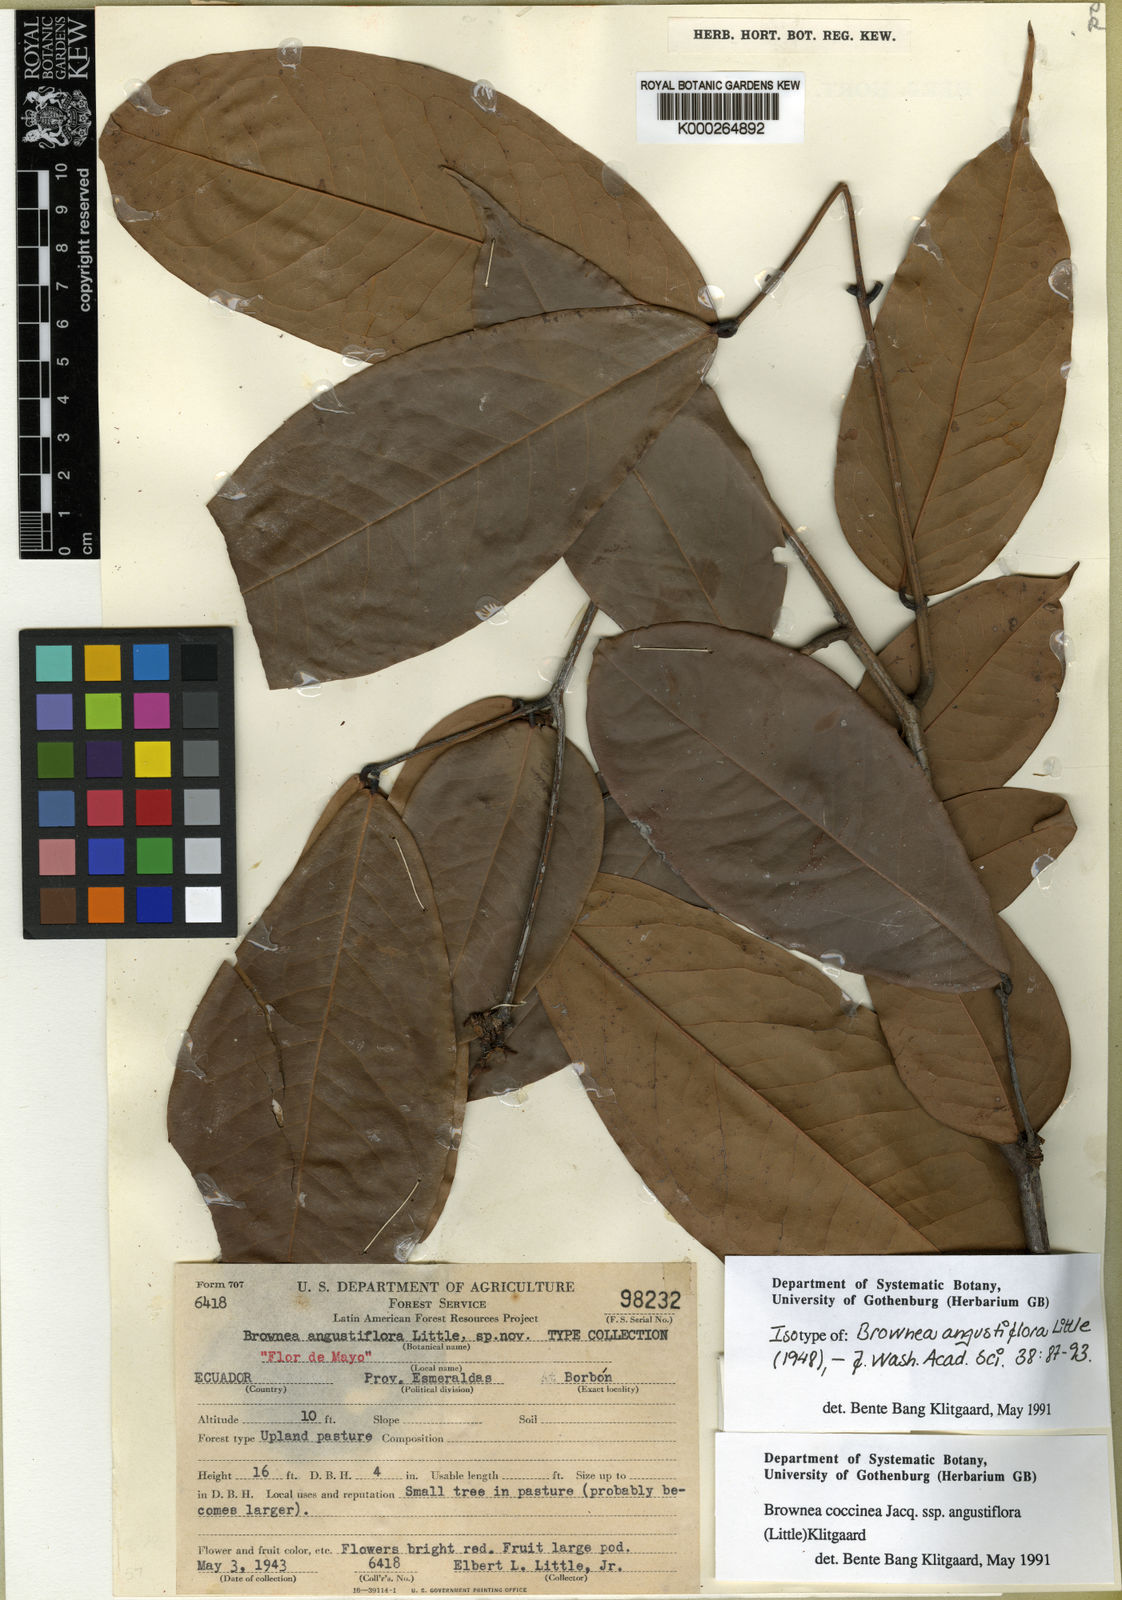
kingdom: Plantae
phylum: Tracheophyta
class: Magnoliopsida
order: Fabales
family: Fabaceae
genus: Brownea
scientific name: Brownea angustiflora
